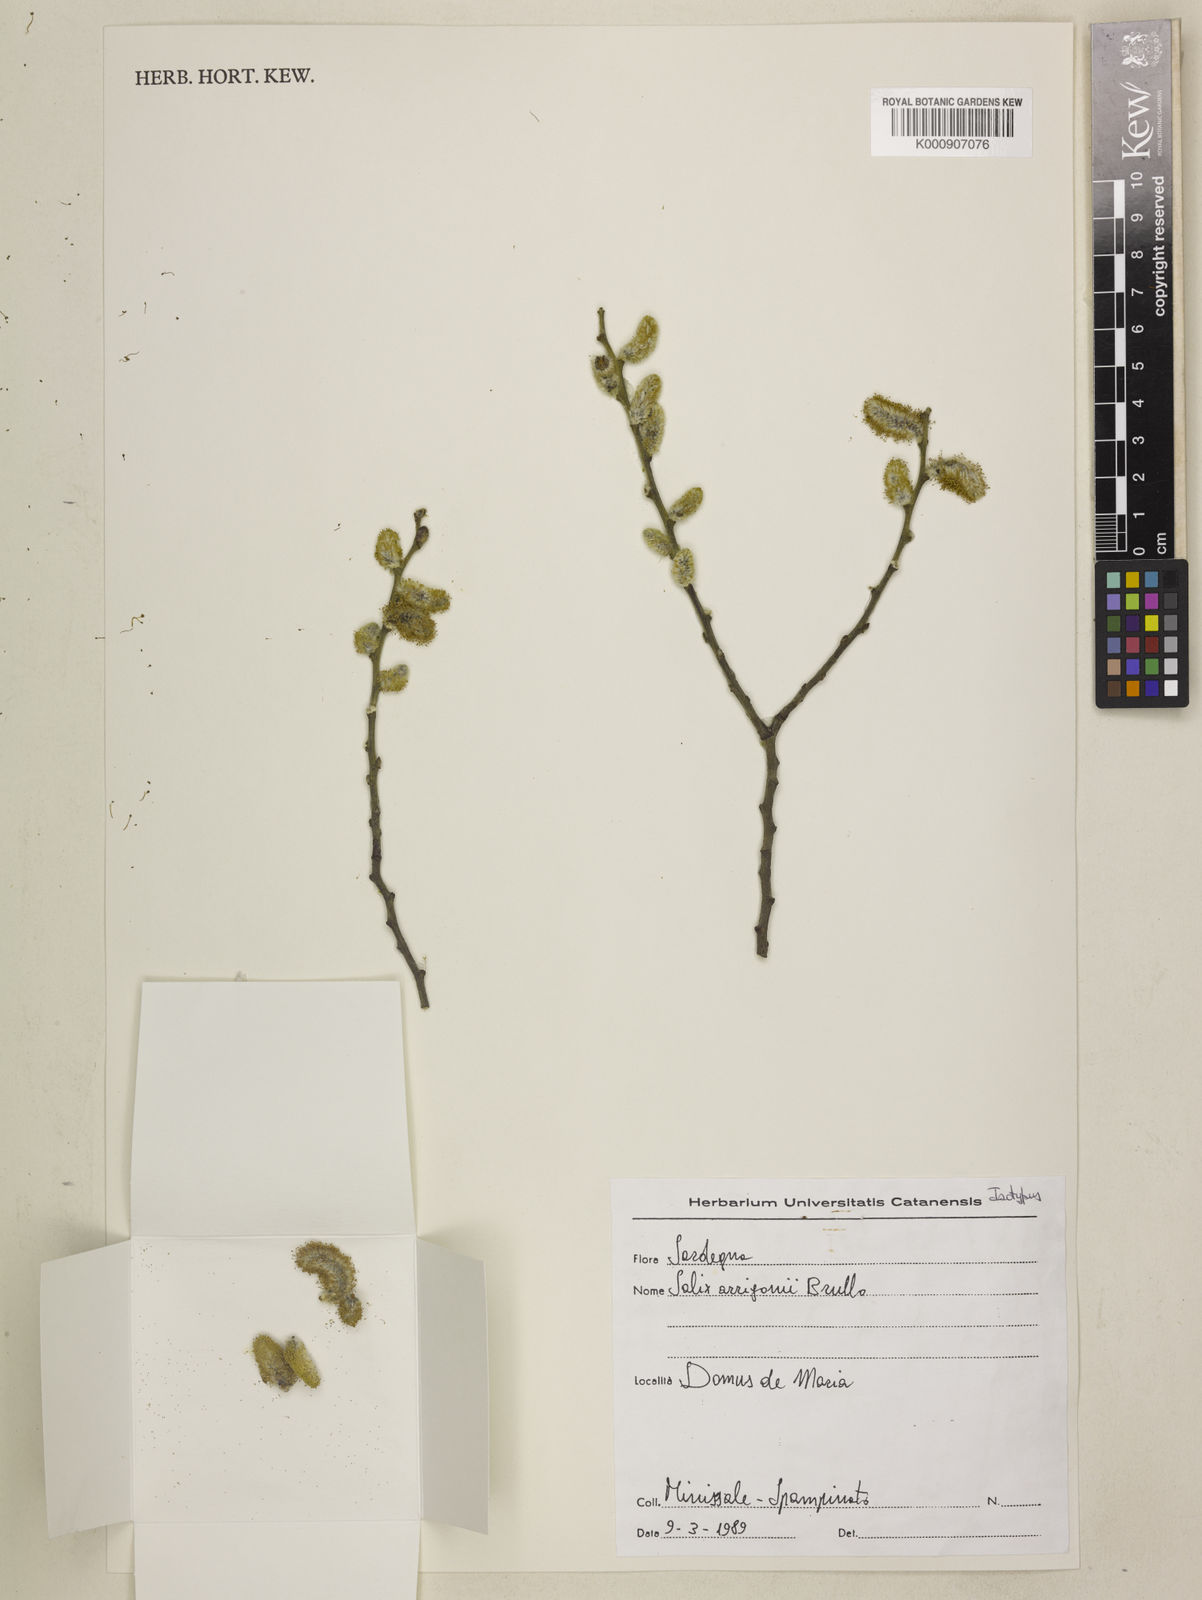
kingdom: Plantae
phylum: Tracheophyta
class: Magnoliopsida
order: Malpighiales
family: Salicaceae
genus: Salix
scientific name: Salix arrigonii
